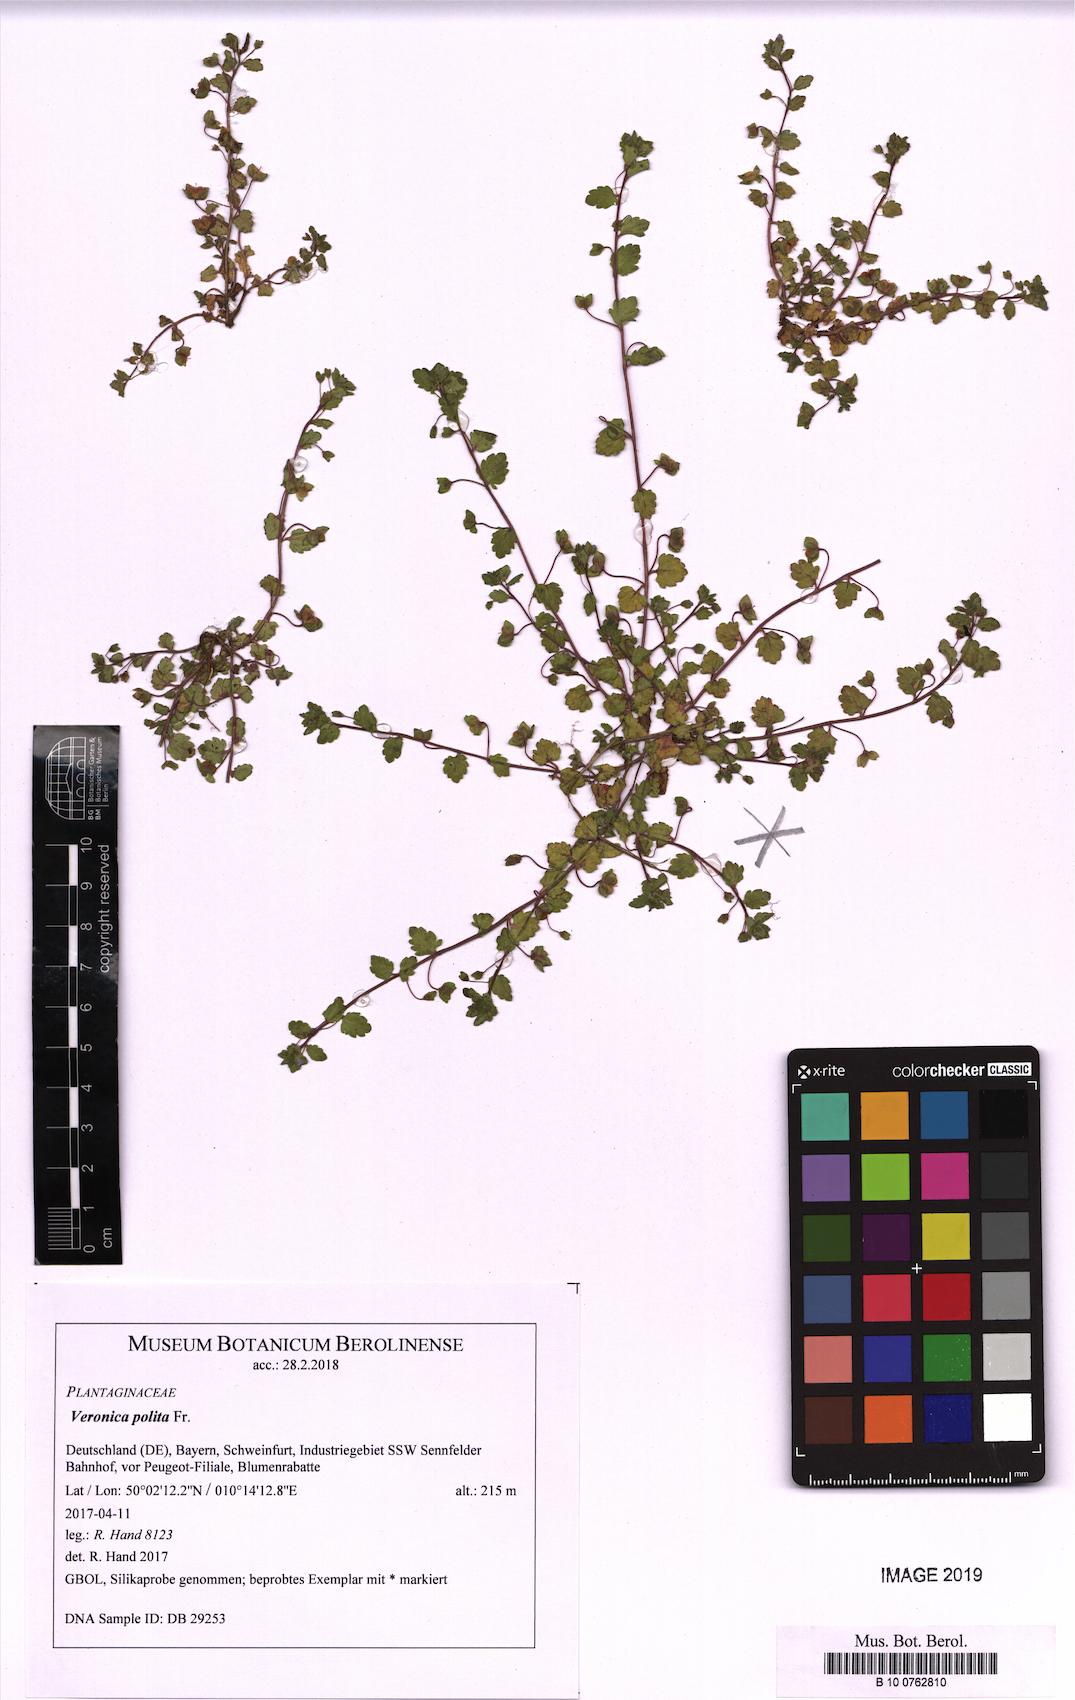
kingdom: Plantae
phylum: Tracheophyta
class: Magnoliopsida
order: Lamiales
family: Plantaginaceae
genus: Veronica
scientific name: Veronica polita
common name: Grey field-speedwell
